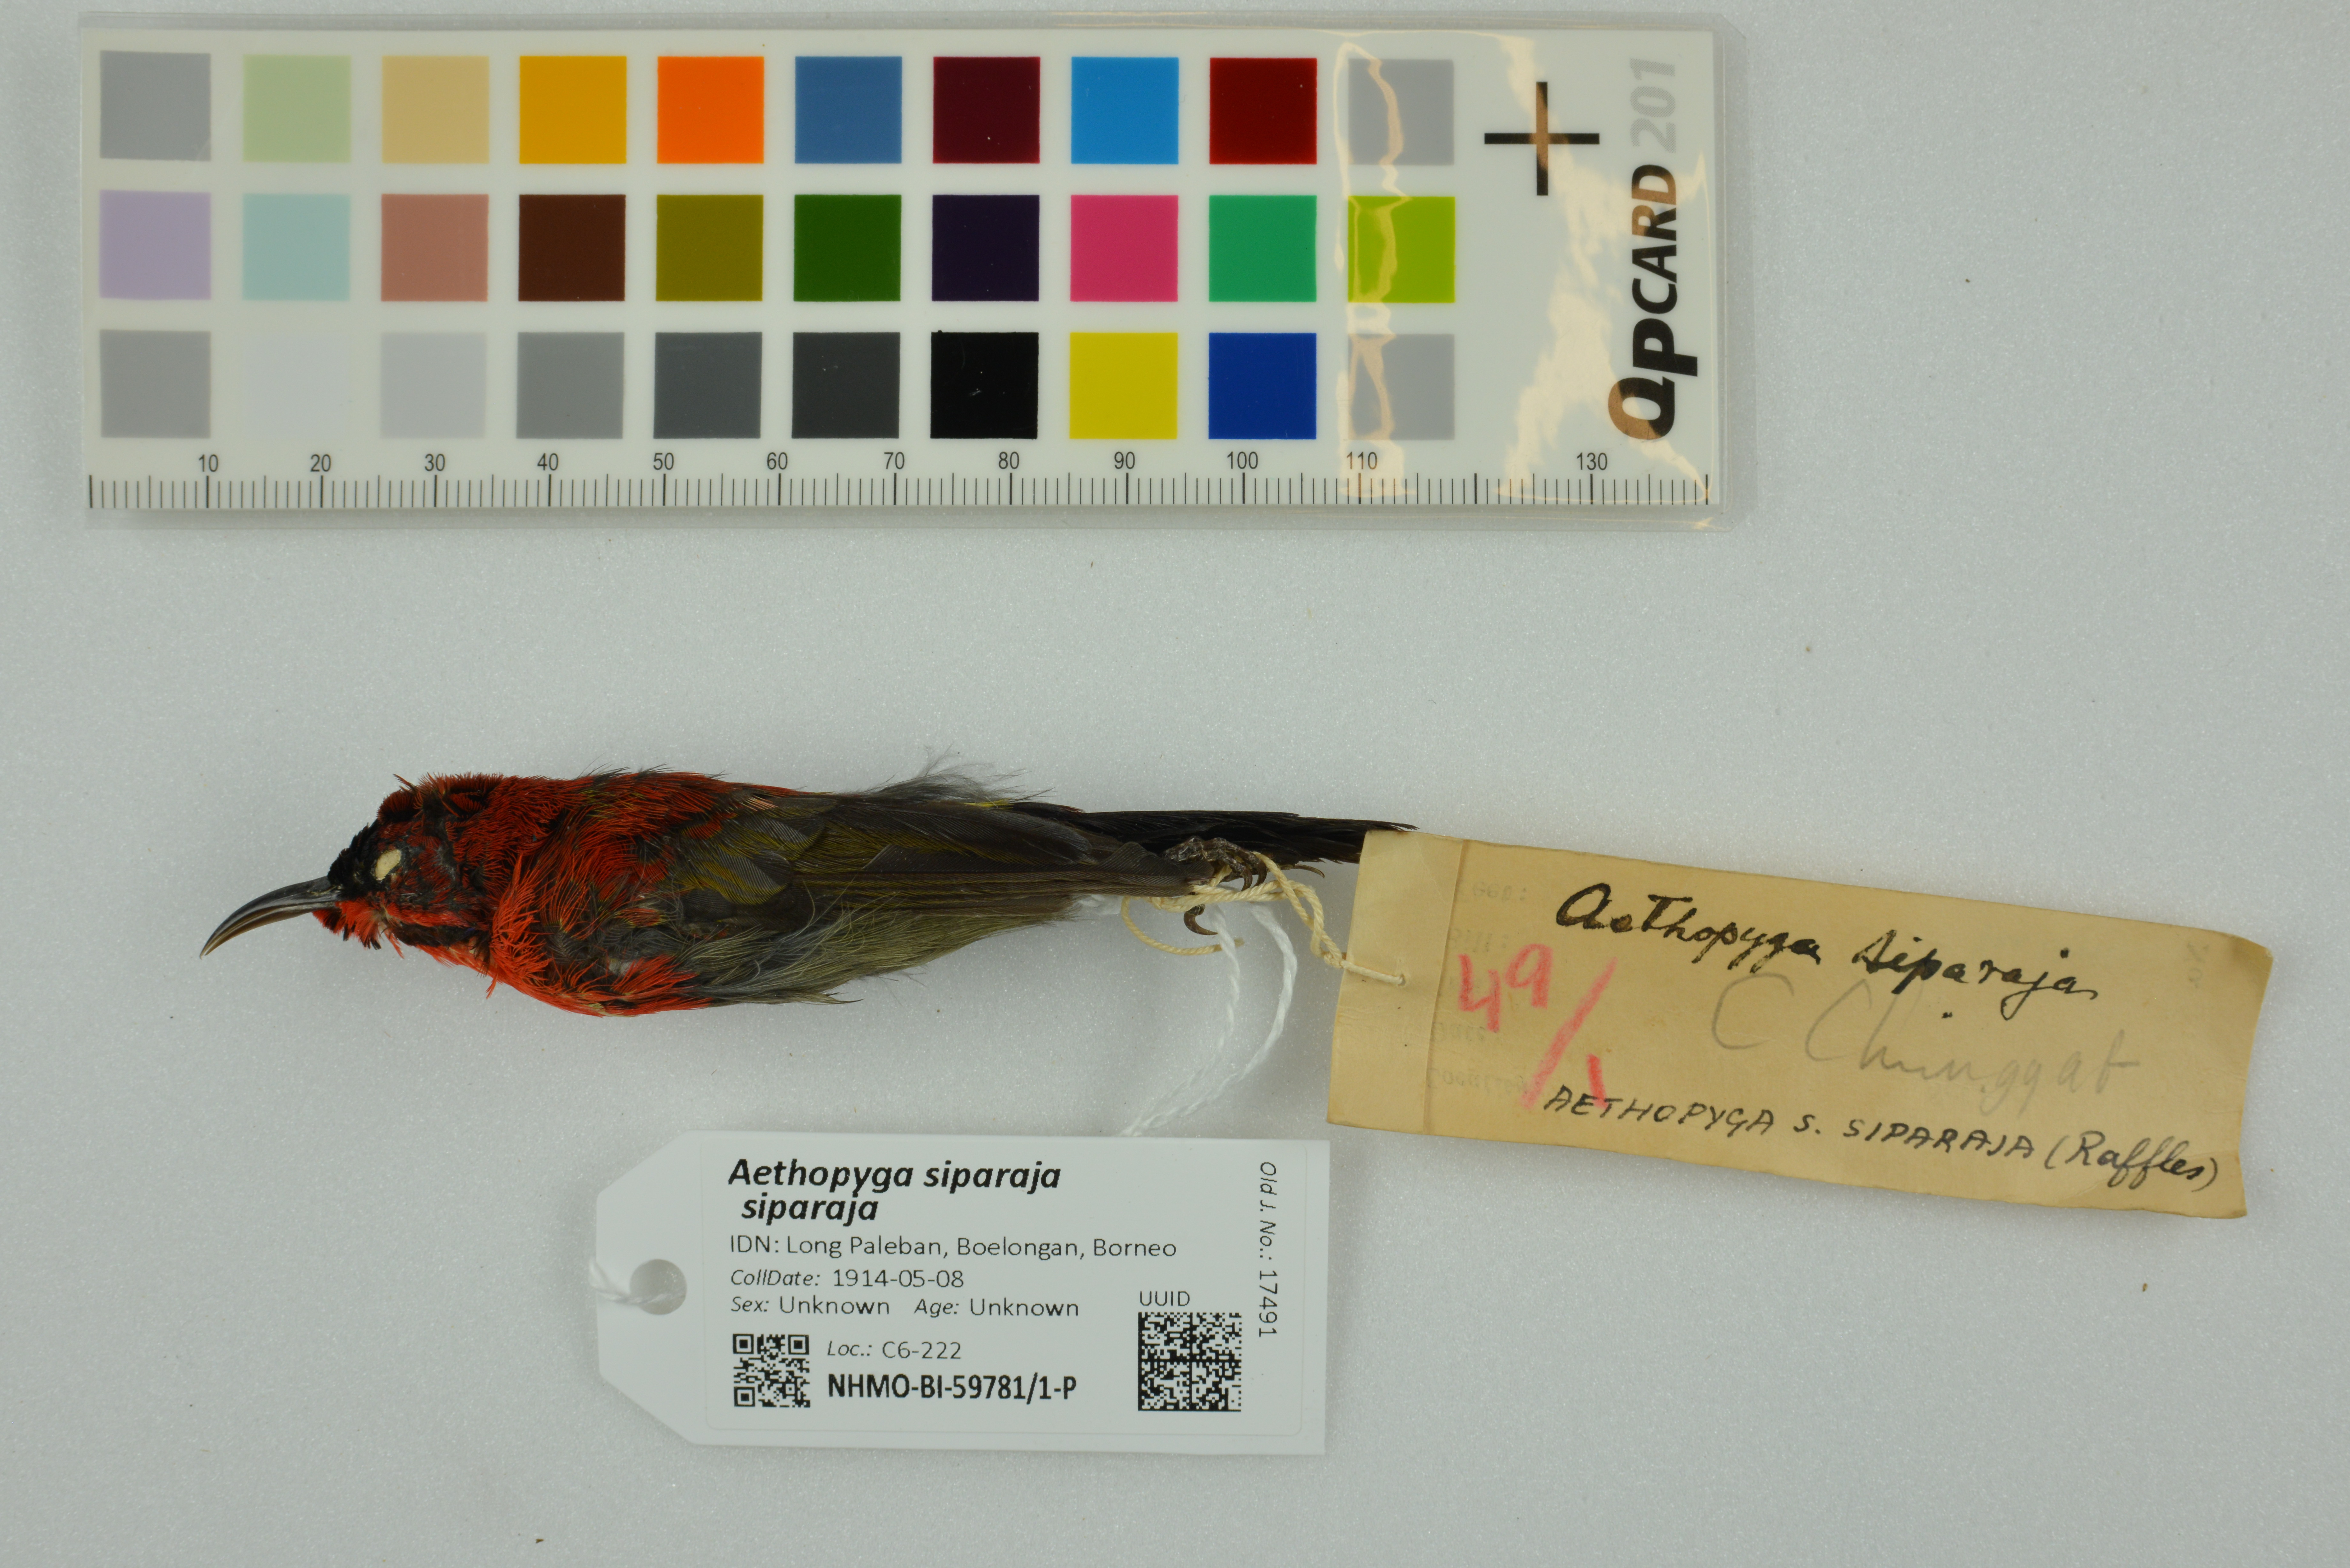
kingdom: Animalia
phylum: Chordata
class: Aves
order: Passeriformes
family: Nectariniidae
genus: Aethopyga
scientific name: Aethopyga siparaja
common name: Crimson sunbird
